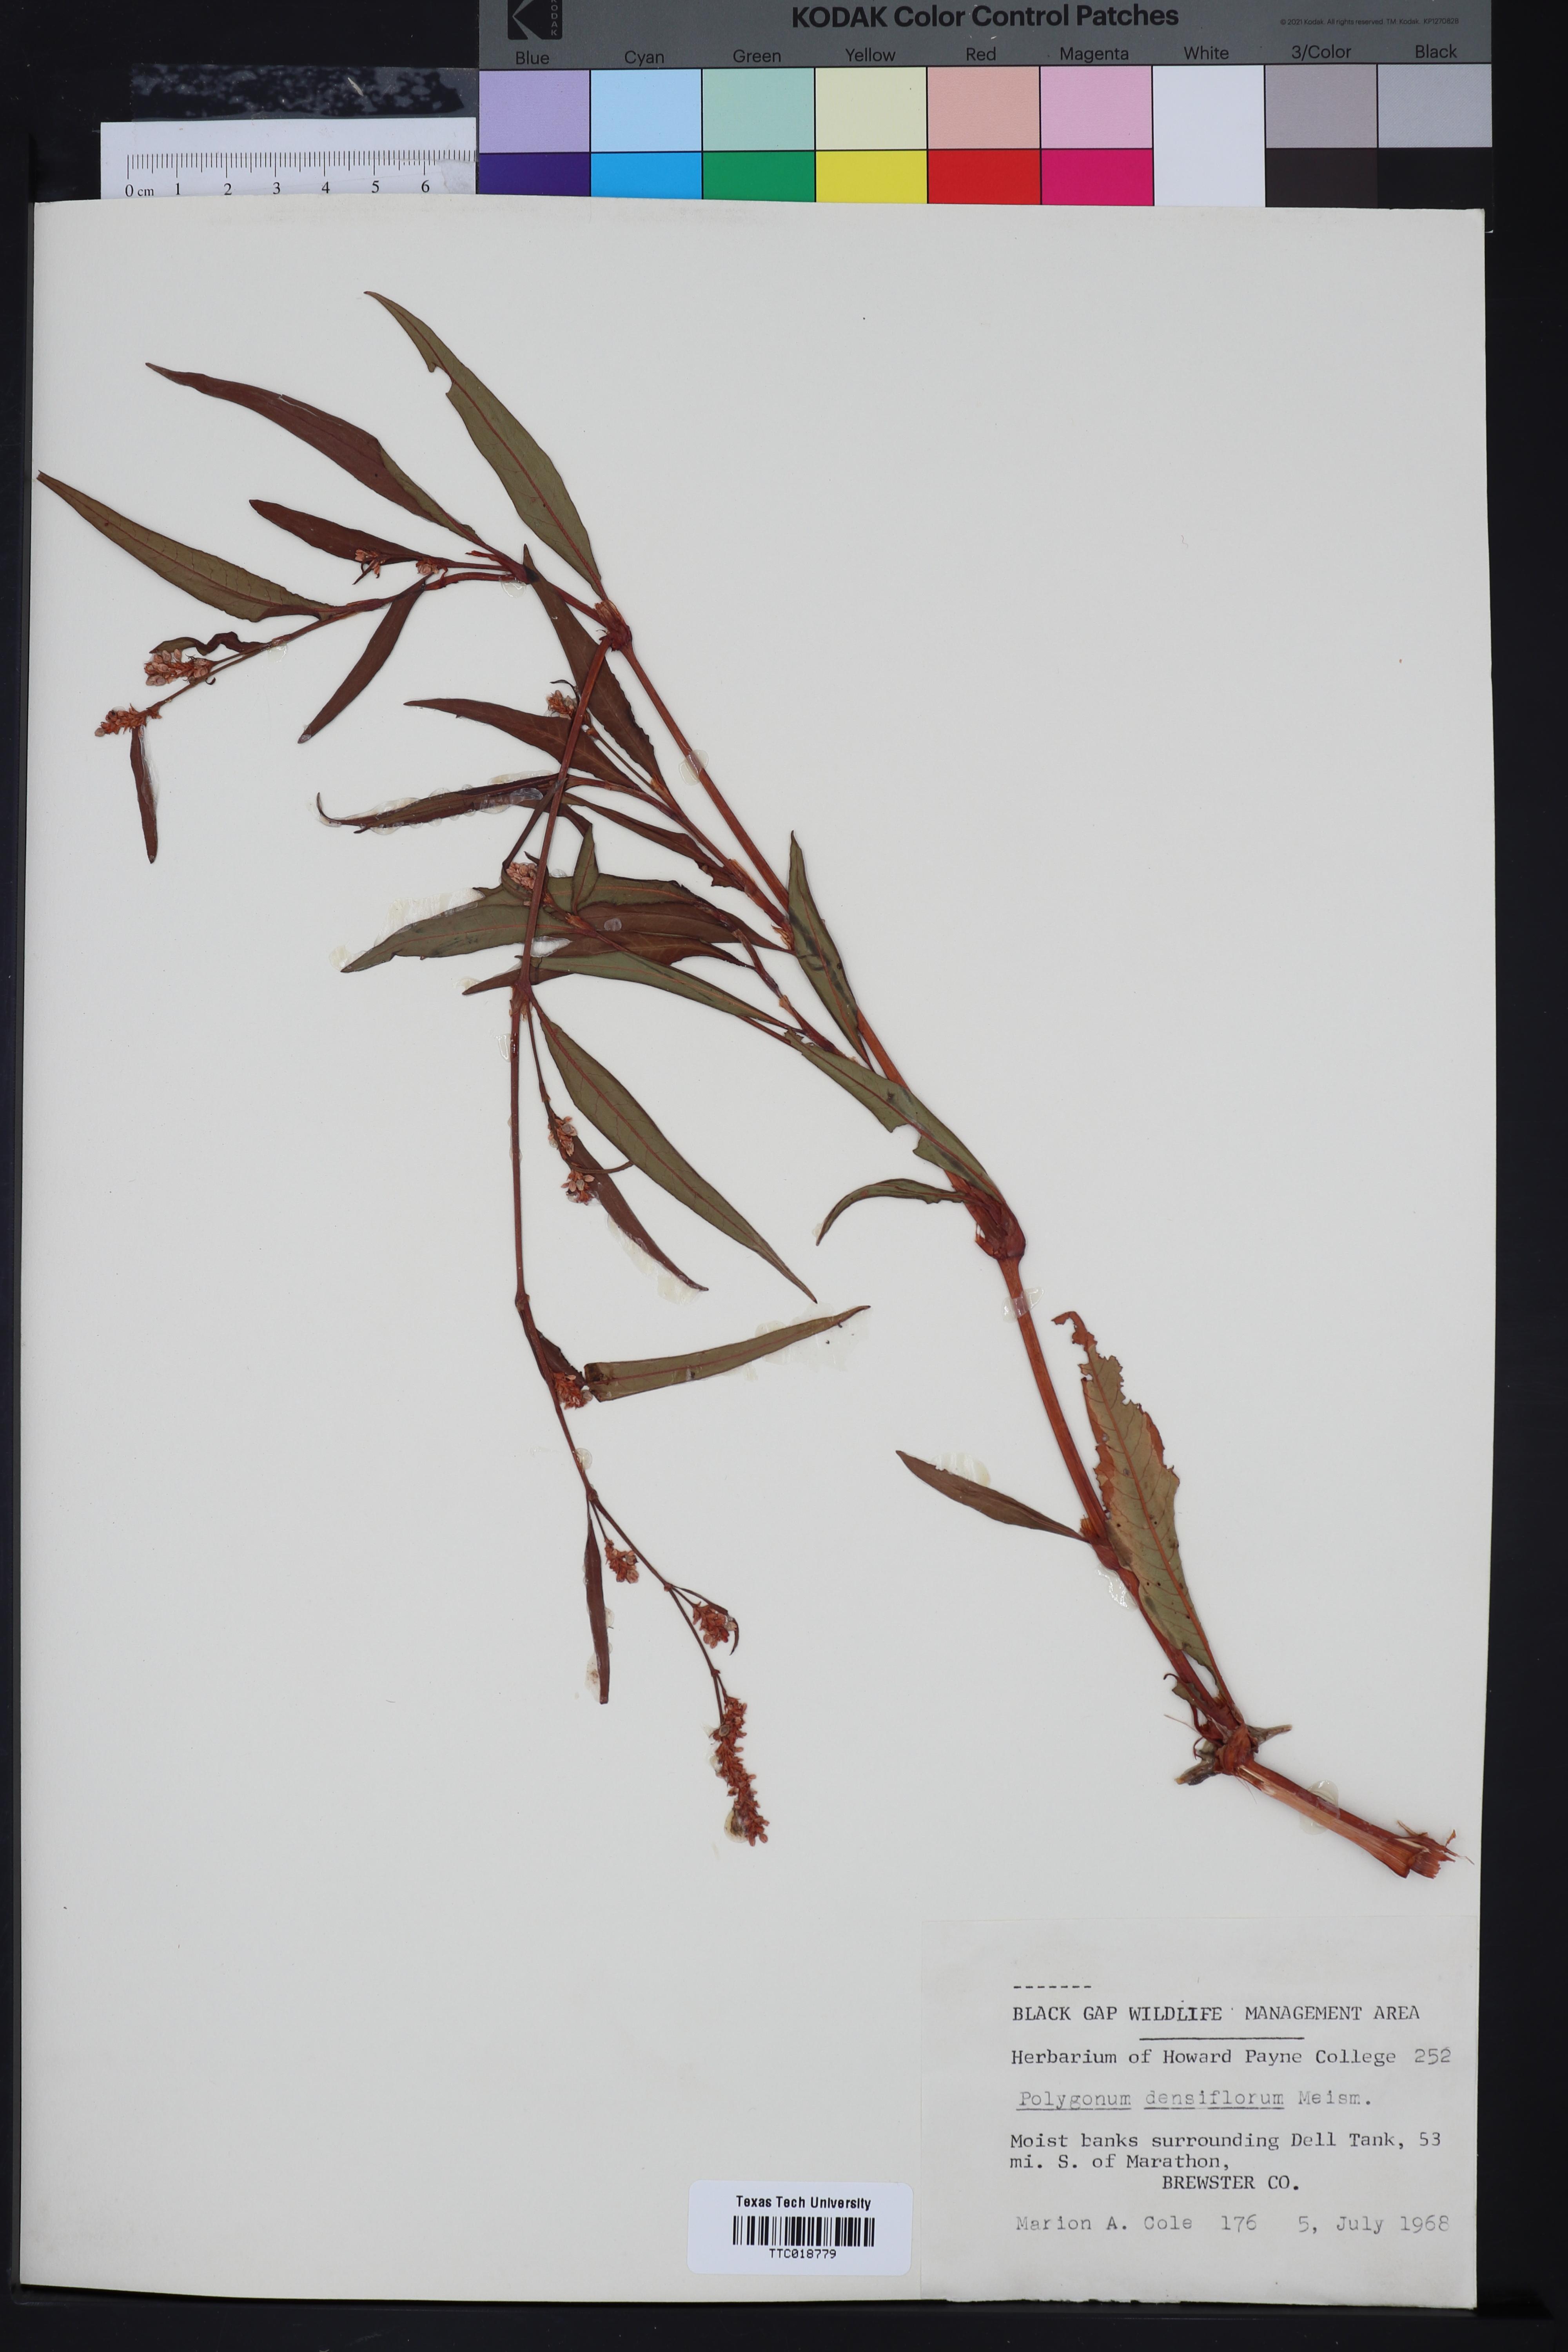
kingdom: Plantae
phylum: Tracheophyta
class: Magnoliopsida
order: Caryophyllales
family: Polygonaceae
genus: Persicaria
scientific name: Persicaria glabra
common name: Denseflower knotweed
